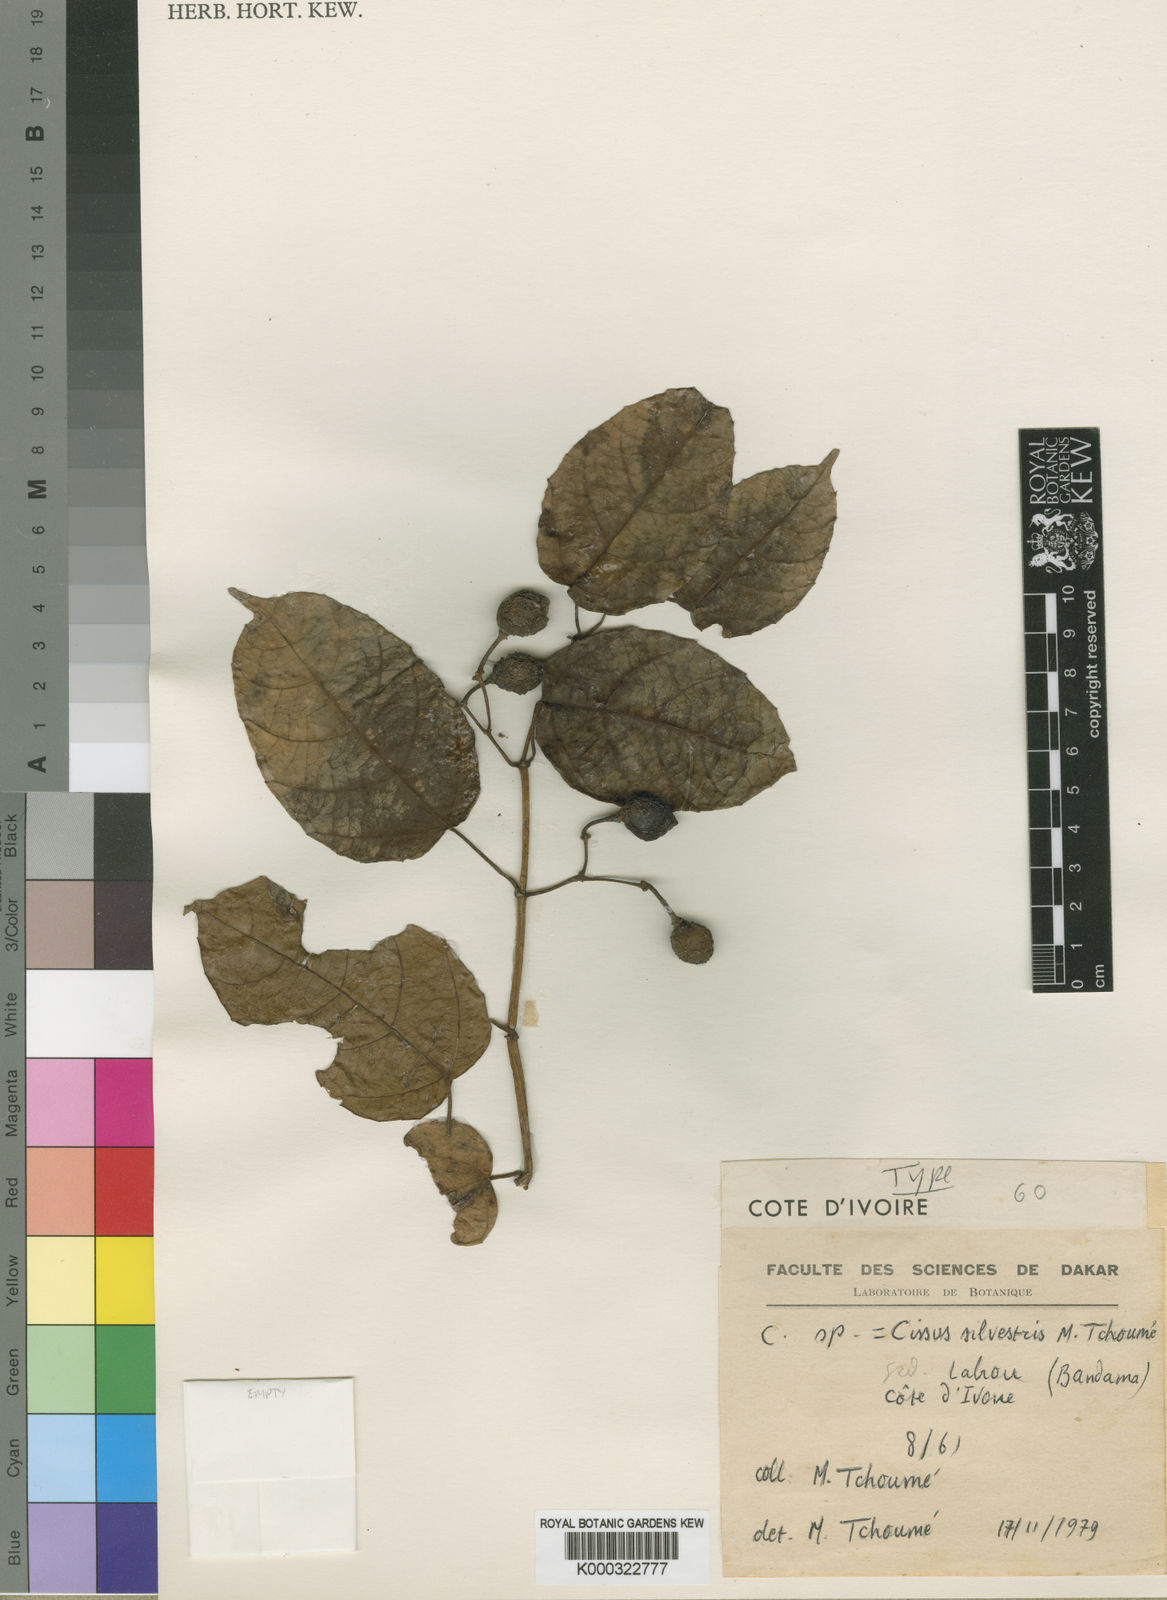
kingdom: Plantae
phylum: Tracheophyta
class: Magnoliopsida
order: Vitales
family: Vitaceae
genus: Cissus
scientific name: Cissus silvestris
